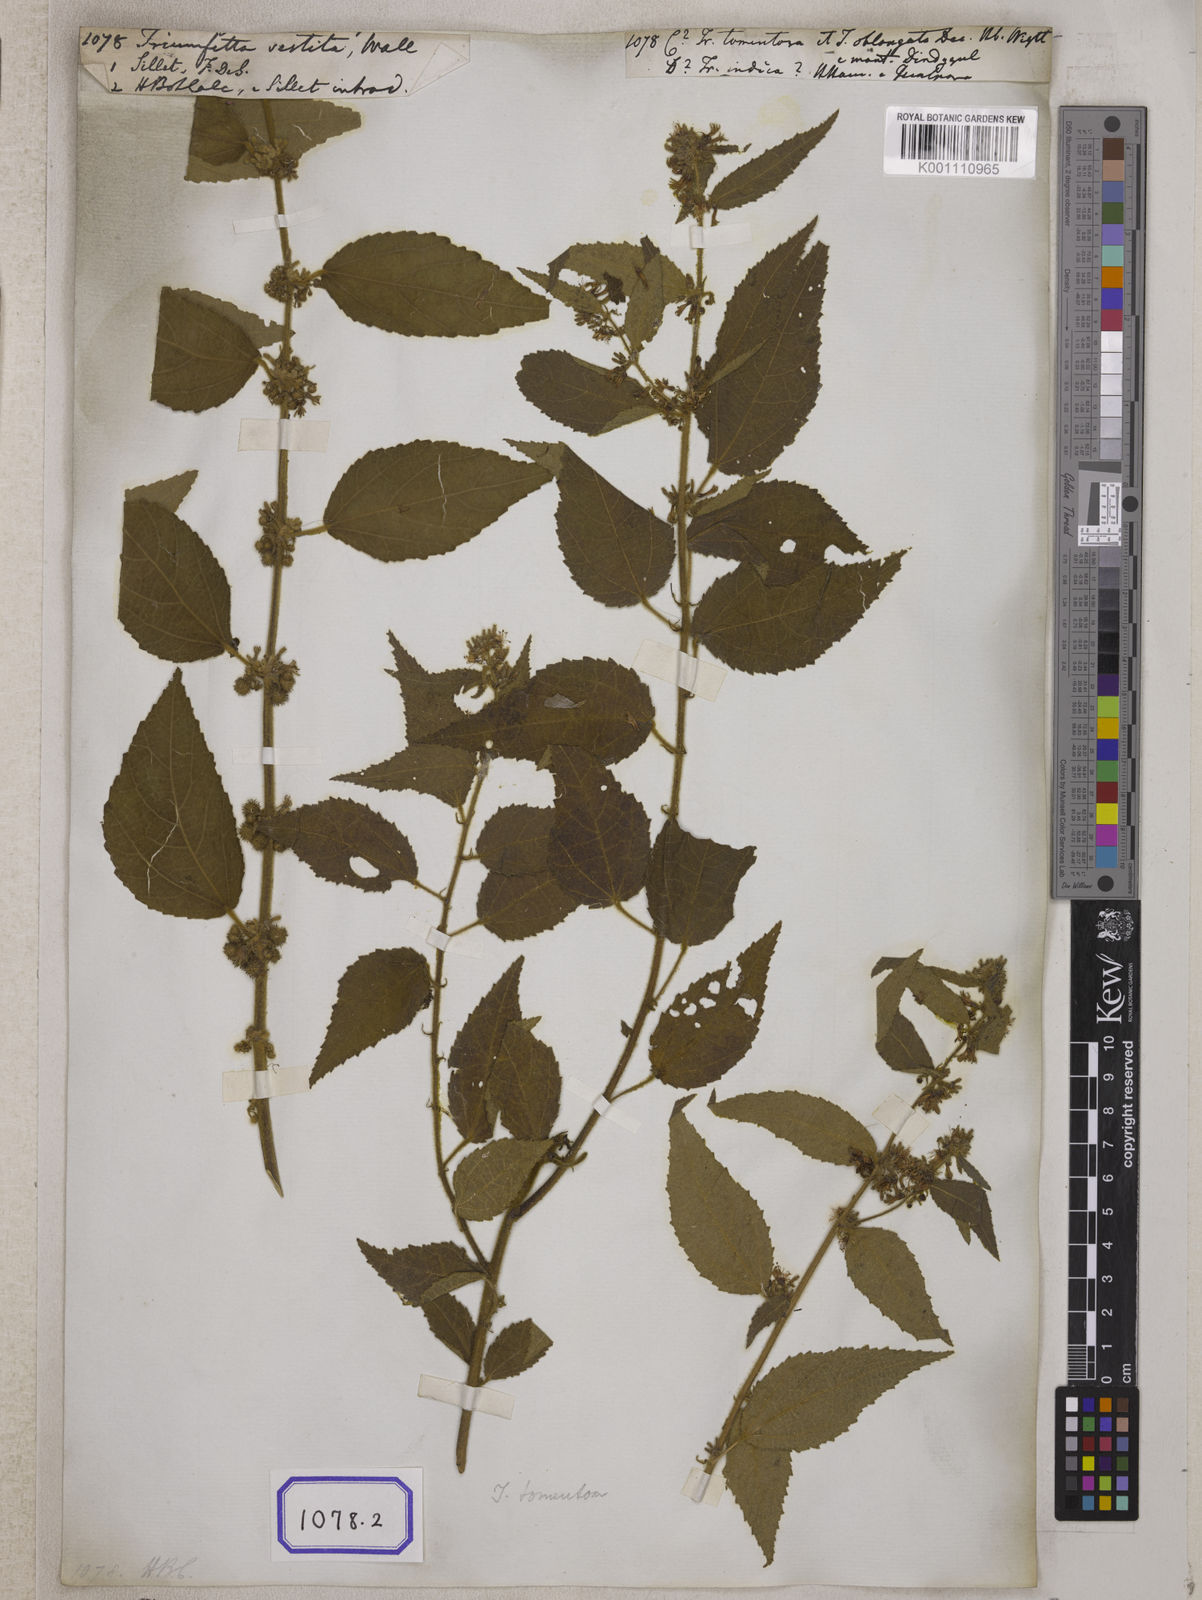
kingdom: Plantae
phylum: Tracheophyta
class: Magnoliopsida
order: Malvales
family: Malvaceae
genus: Triumfetta
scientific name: Triumfetta
